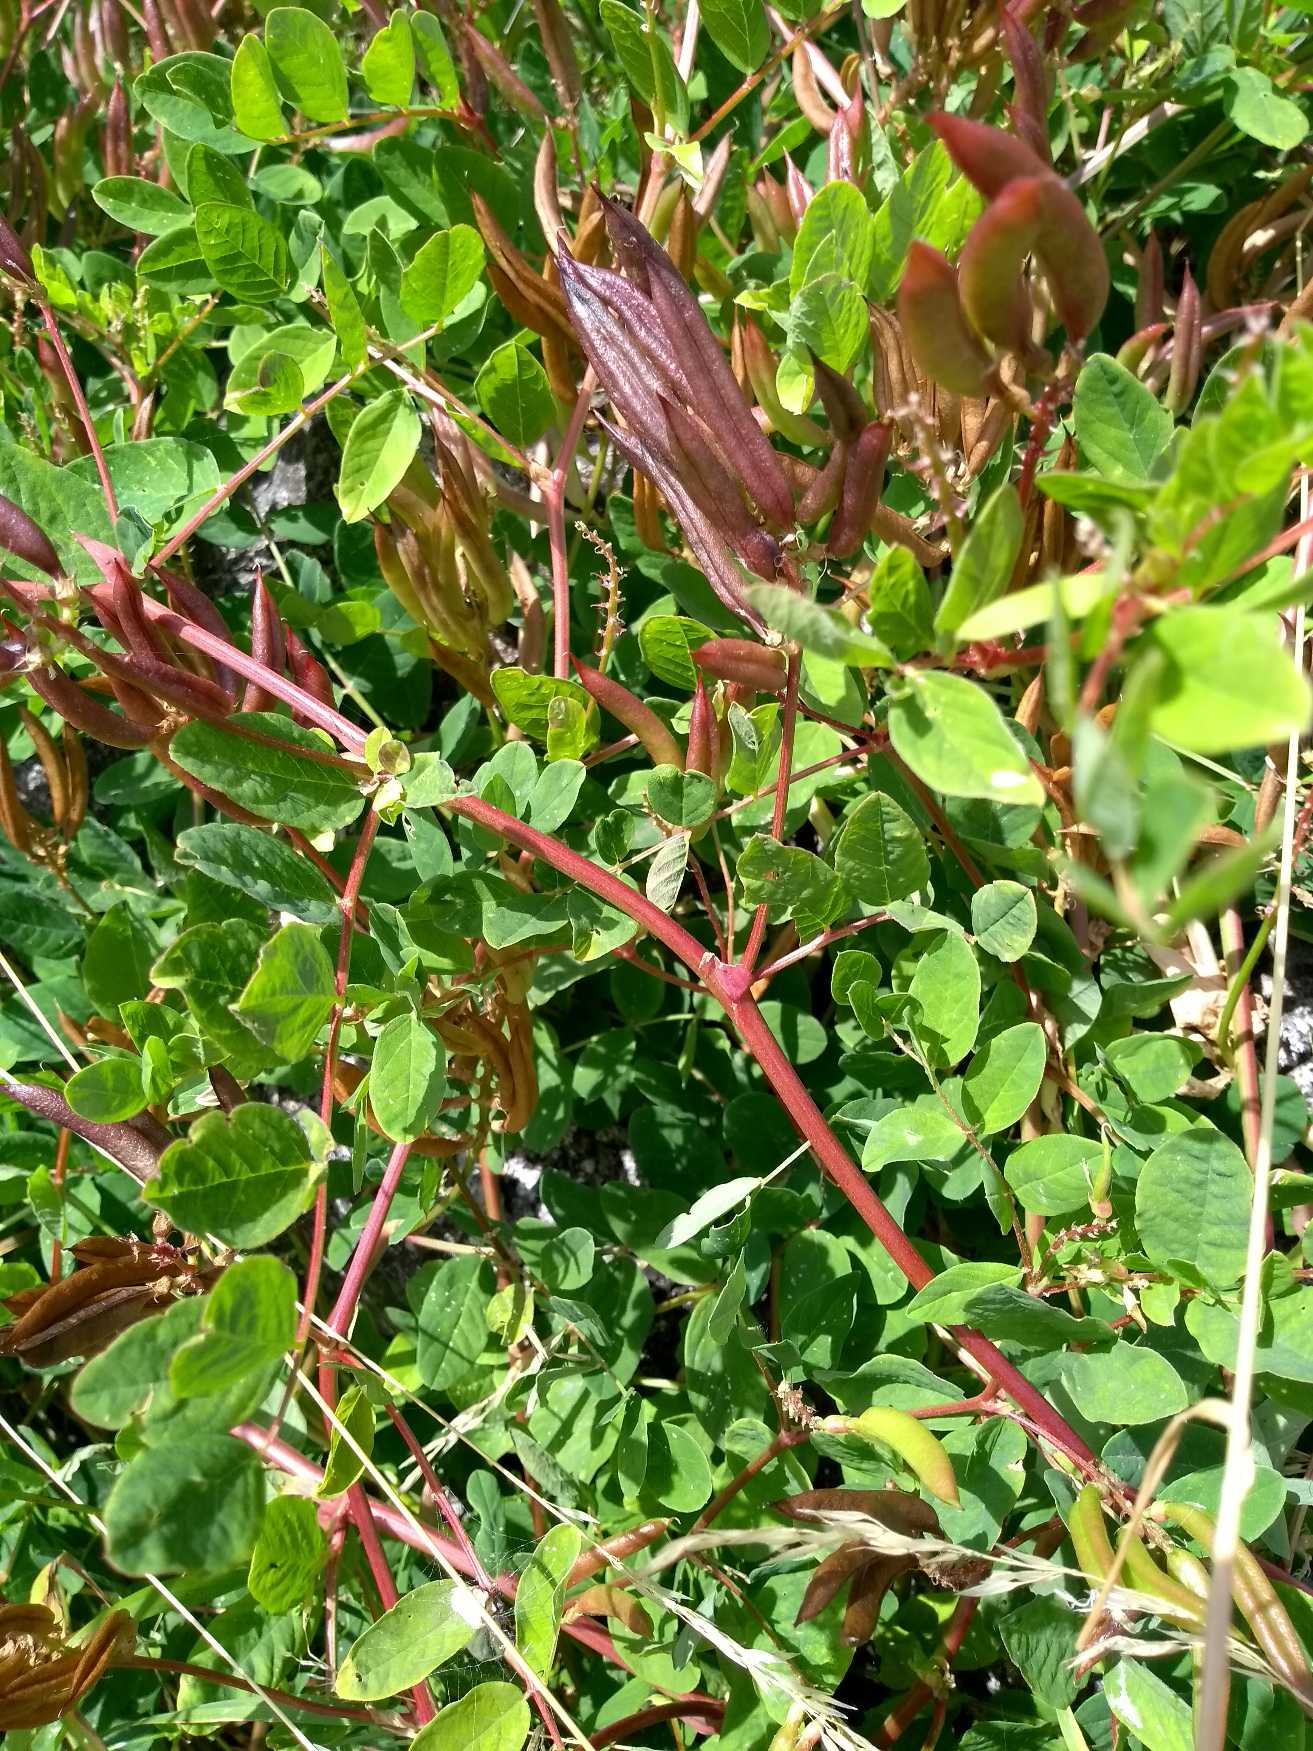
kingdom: Plantae
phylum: Tracheophyta
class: Magnoliopsida
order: Fabales
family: Fabaceae
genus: Astragalus
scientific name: Astragalus glycyphyllos
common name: Sød astragel
